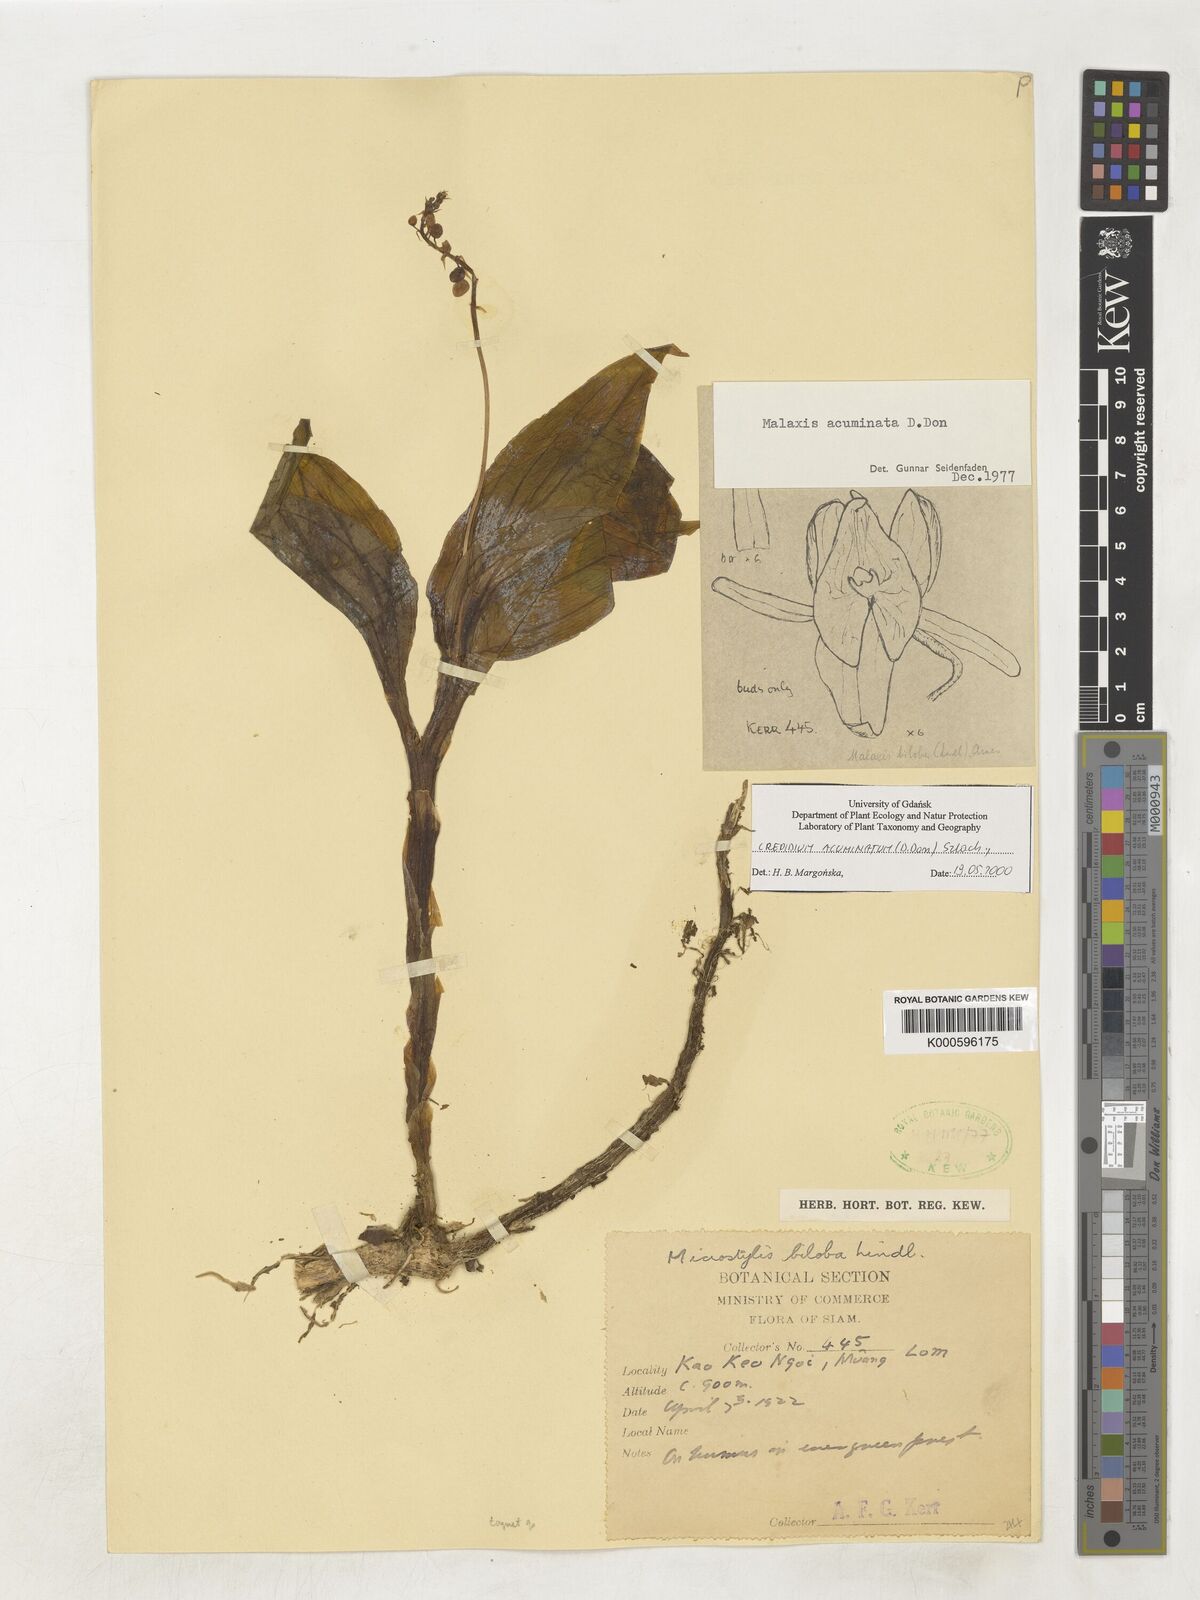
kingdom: Plantae
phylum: Tracheophyta
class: Liliopsida
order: Asparagales
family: Orchidaceae
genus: Crepidium
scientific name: Crepidium acuminatum
